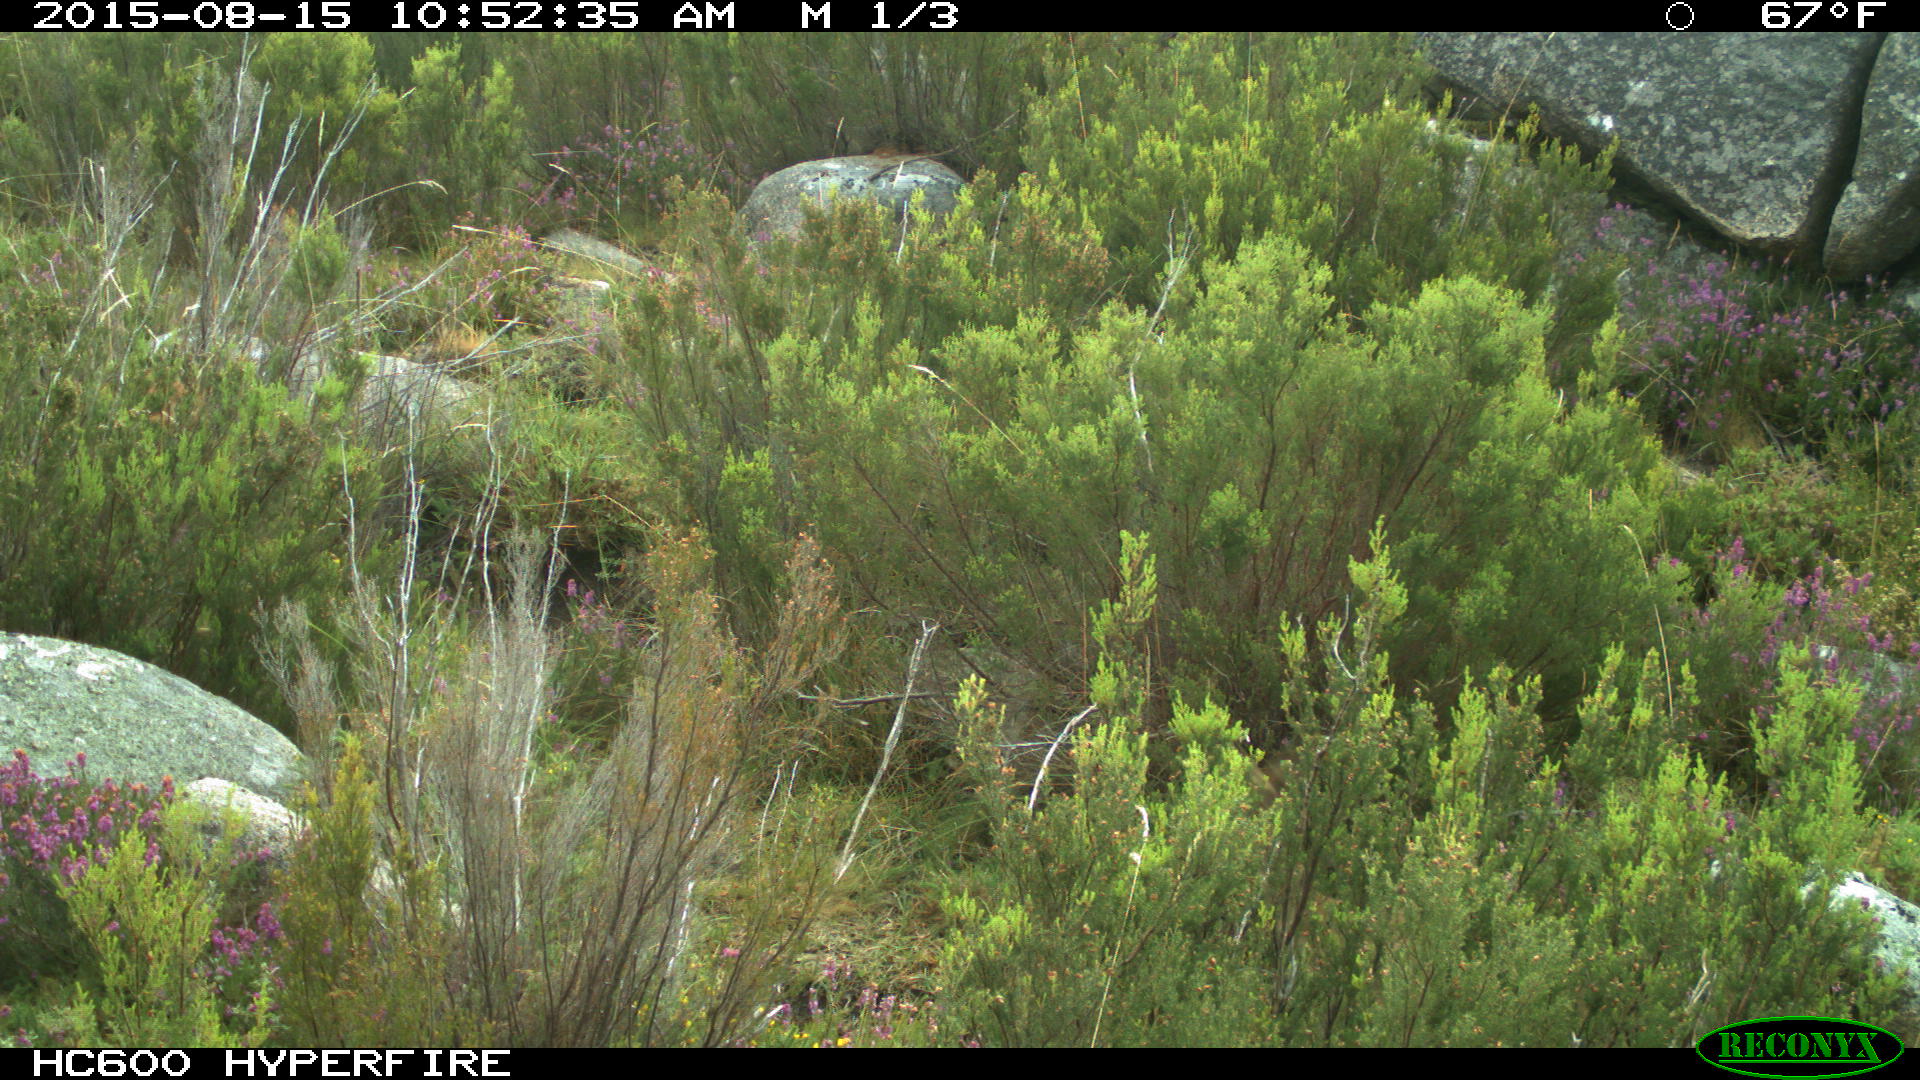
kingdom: Animalia
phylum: Chordata
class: Mammalia
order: Carnivora
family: Canidae
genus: Vulpes
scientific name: Vulpes vulpes
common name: Red fox
